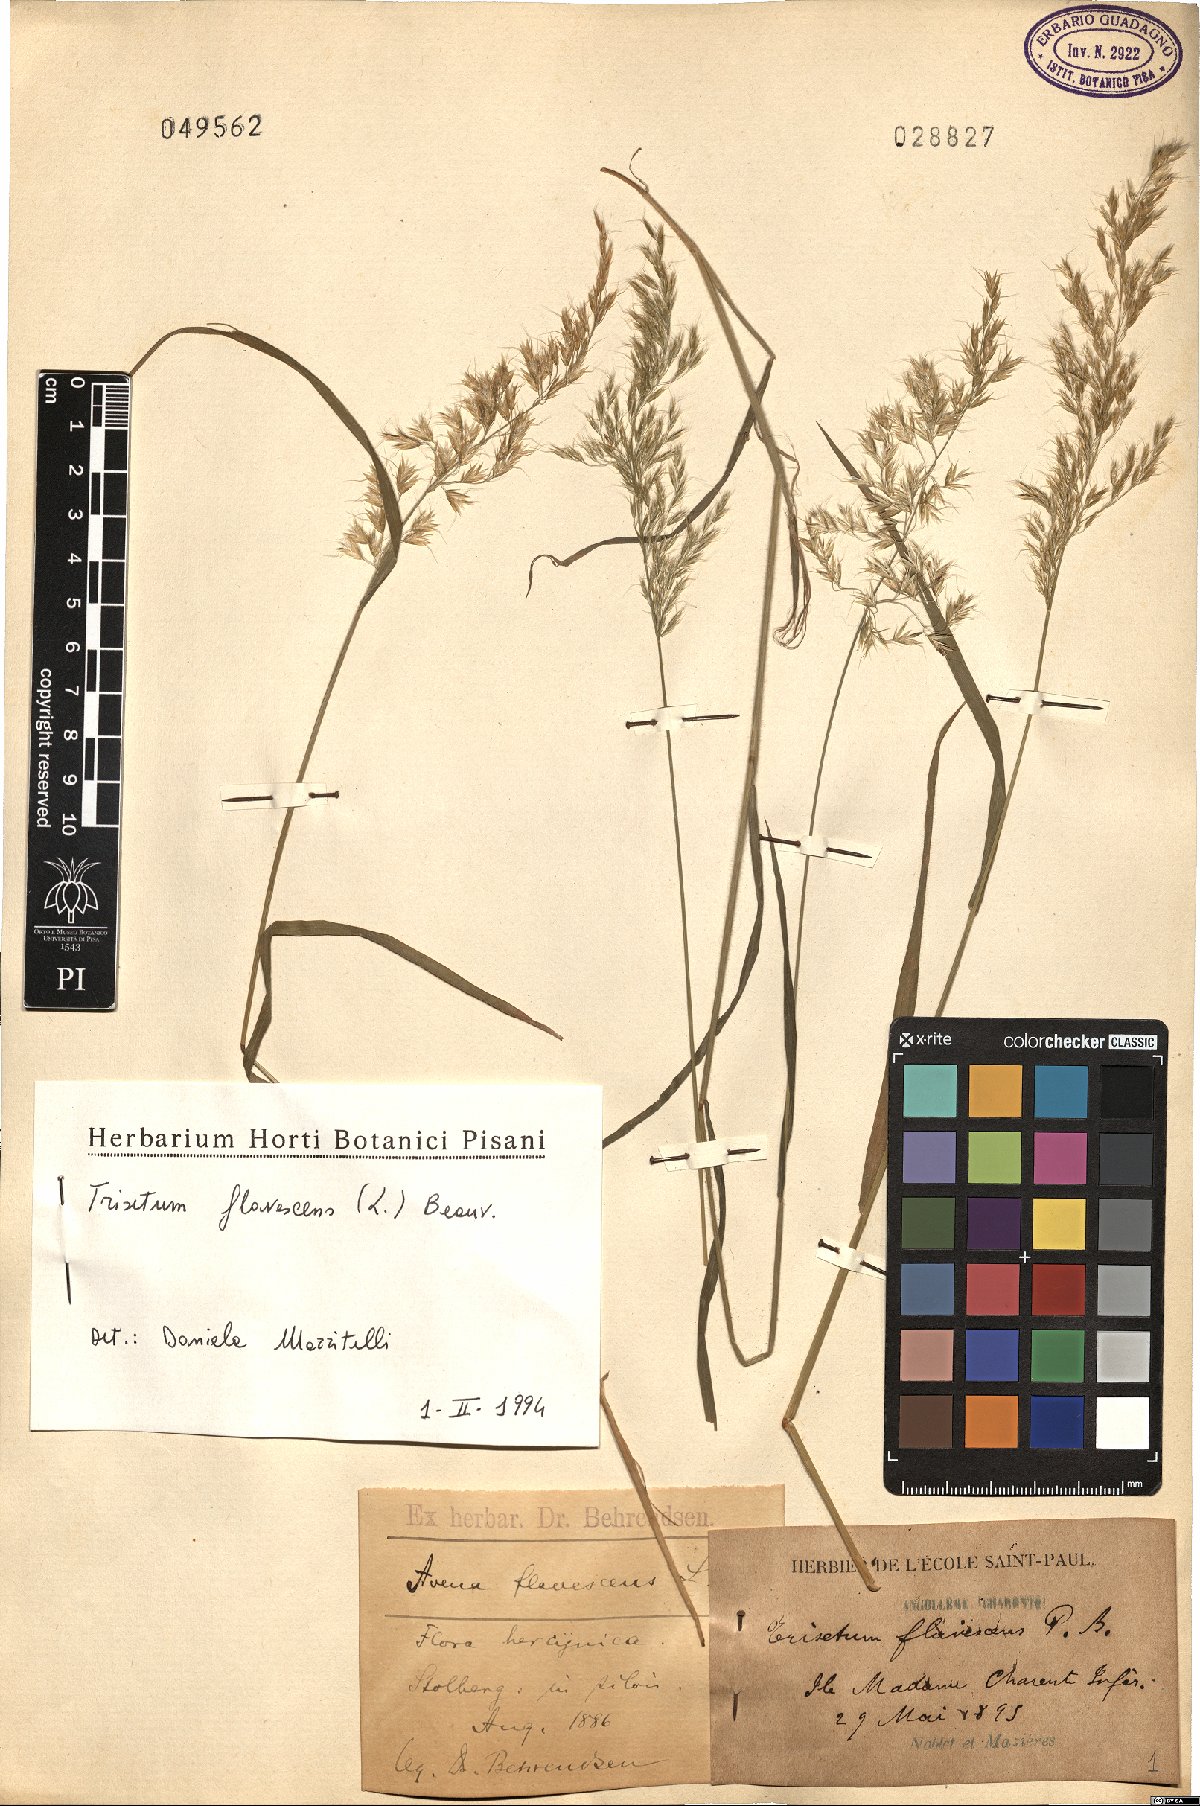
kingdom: Plantae
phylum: Tracheophyta
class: Liliopsida
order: Poales
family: Poaceae
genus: Trisetum
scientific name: Trisetum flavescens
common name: Yellow oat-grass
